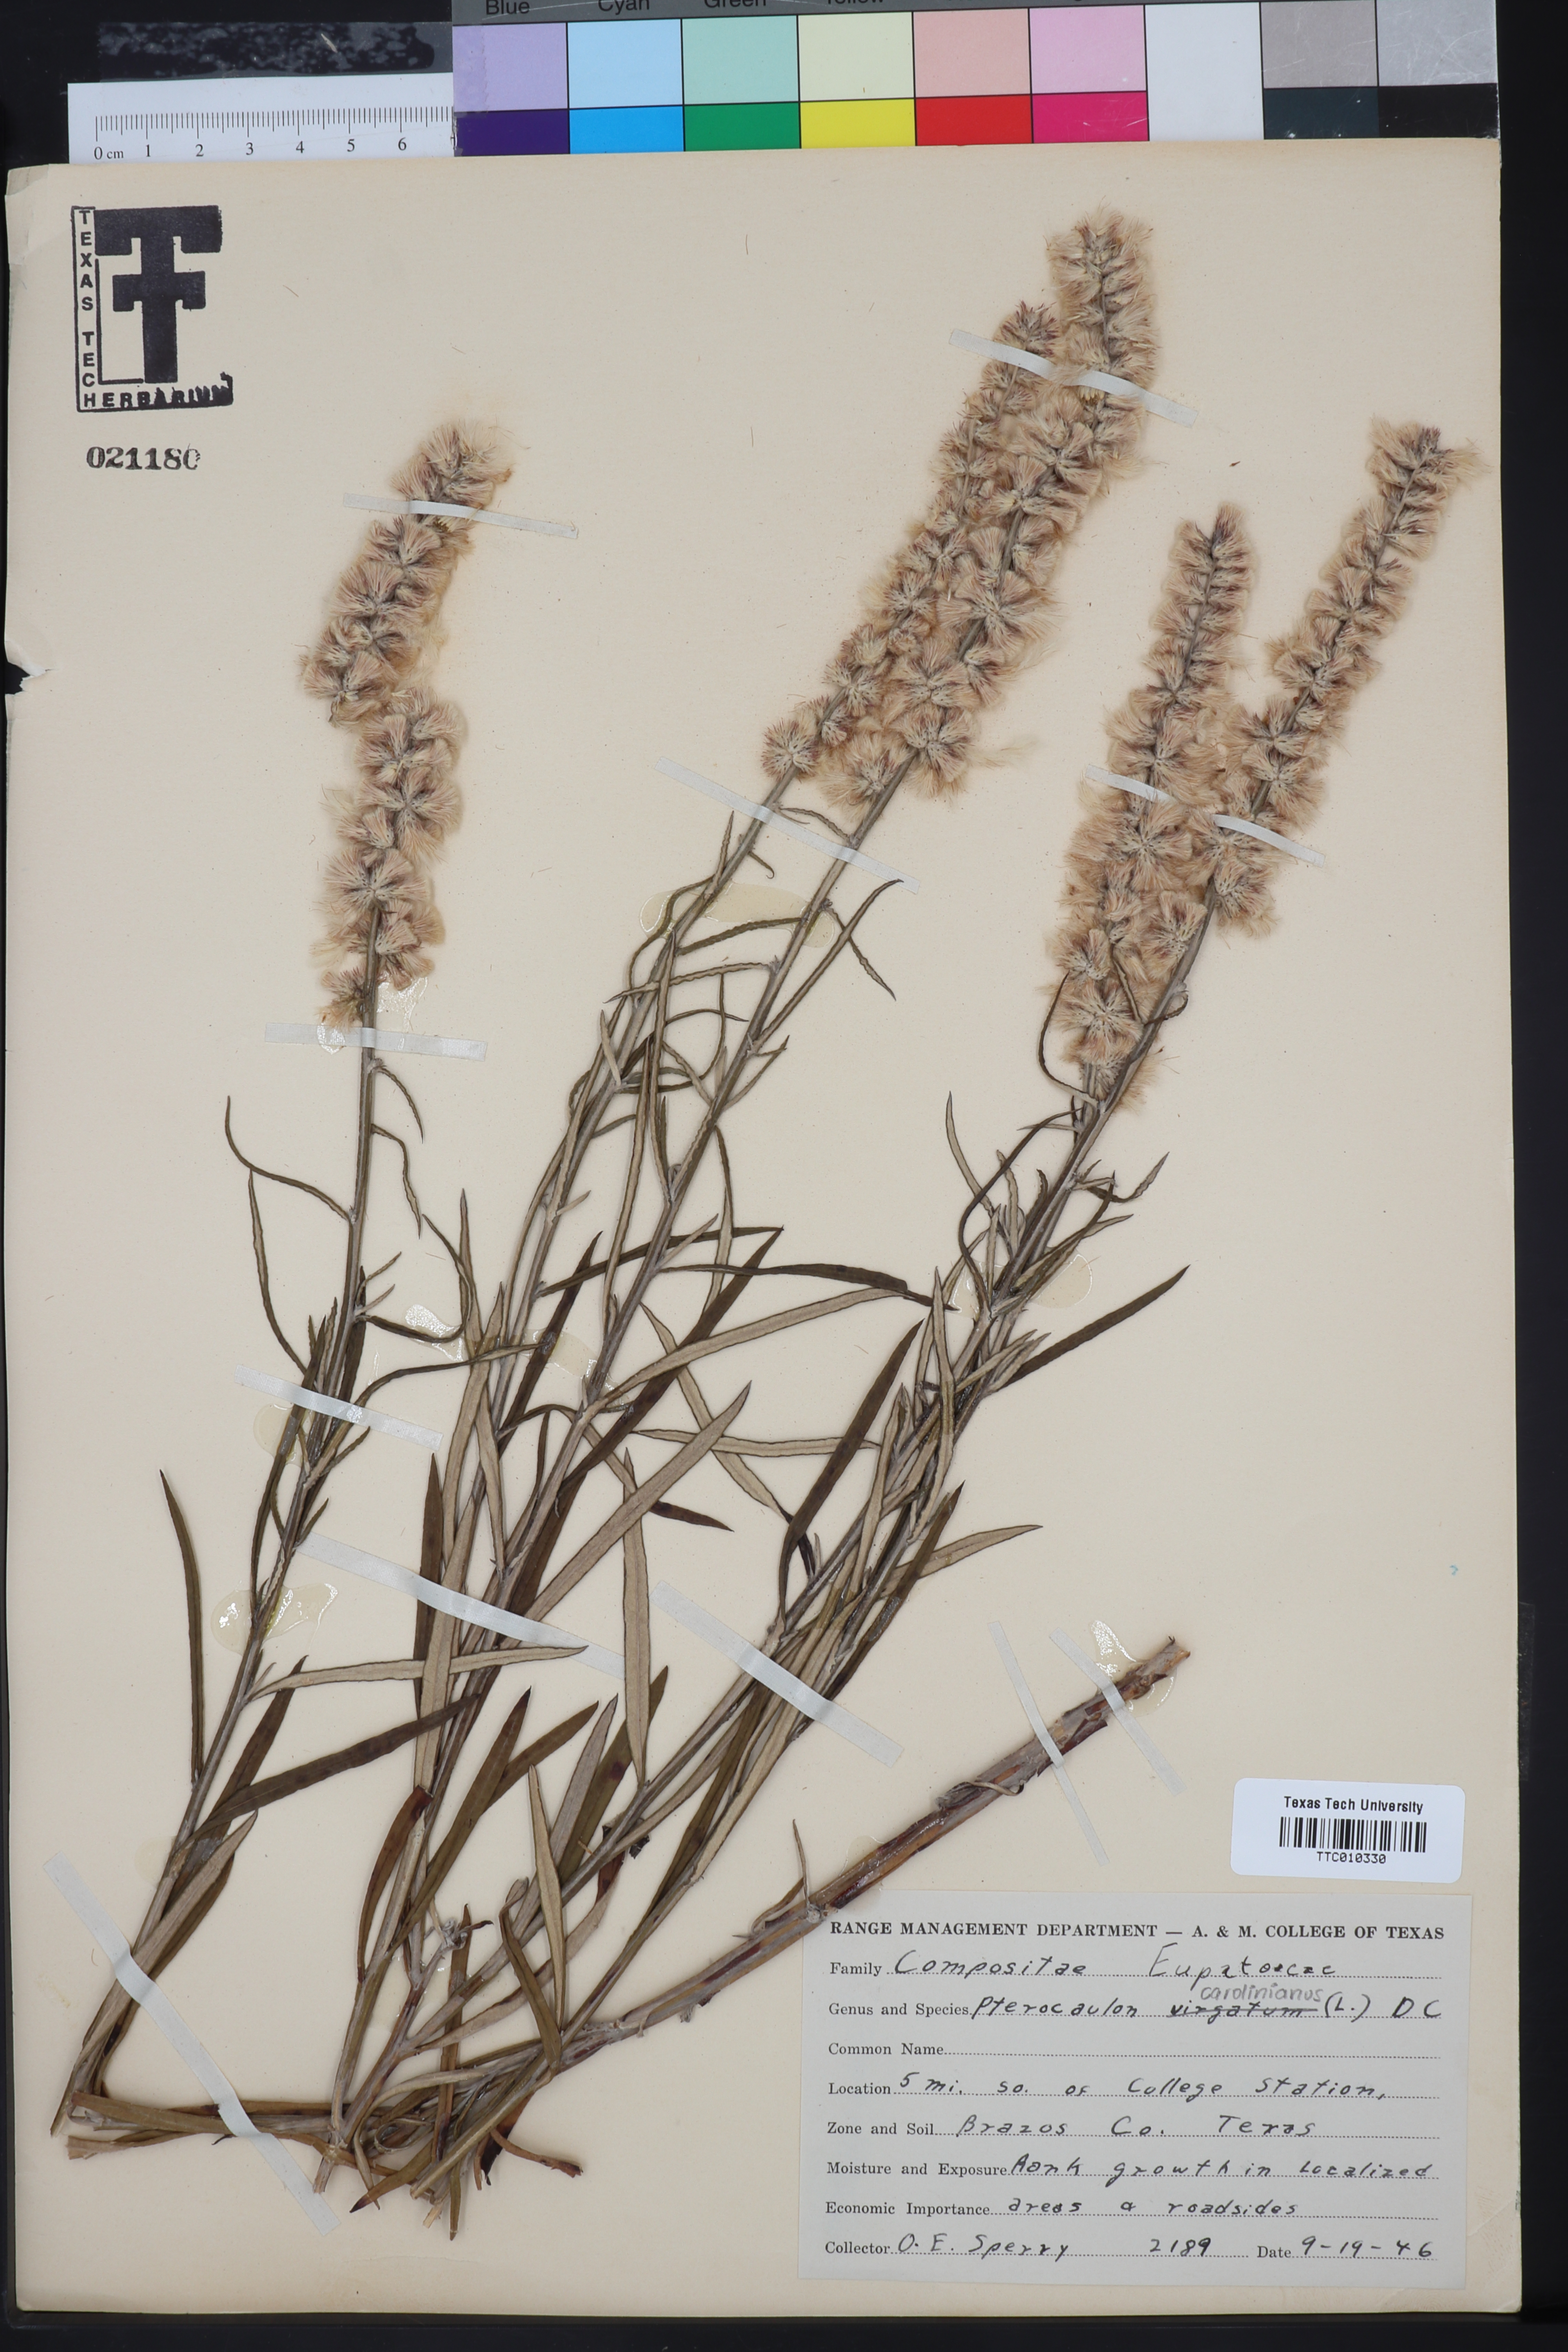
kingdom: Plantae
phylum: Tracheophyta
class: Magnoliopsida
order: Asterales
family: Asteraceae
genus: Pterocaulon
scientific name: Pterocaulon virgatum
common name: Wand blackroot
